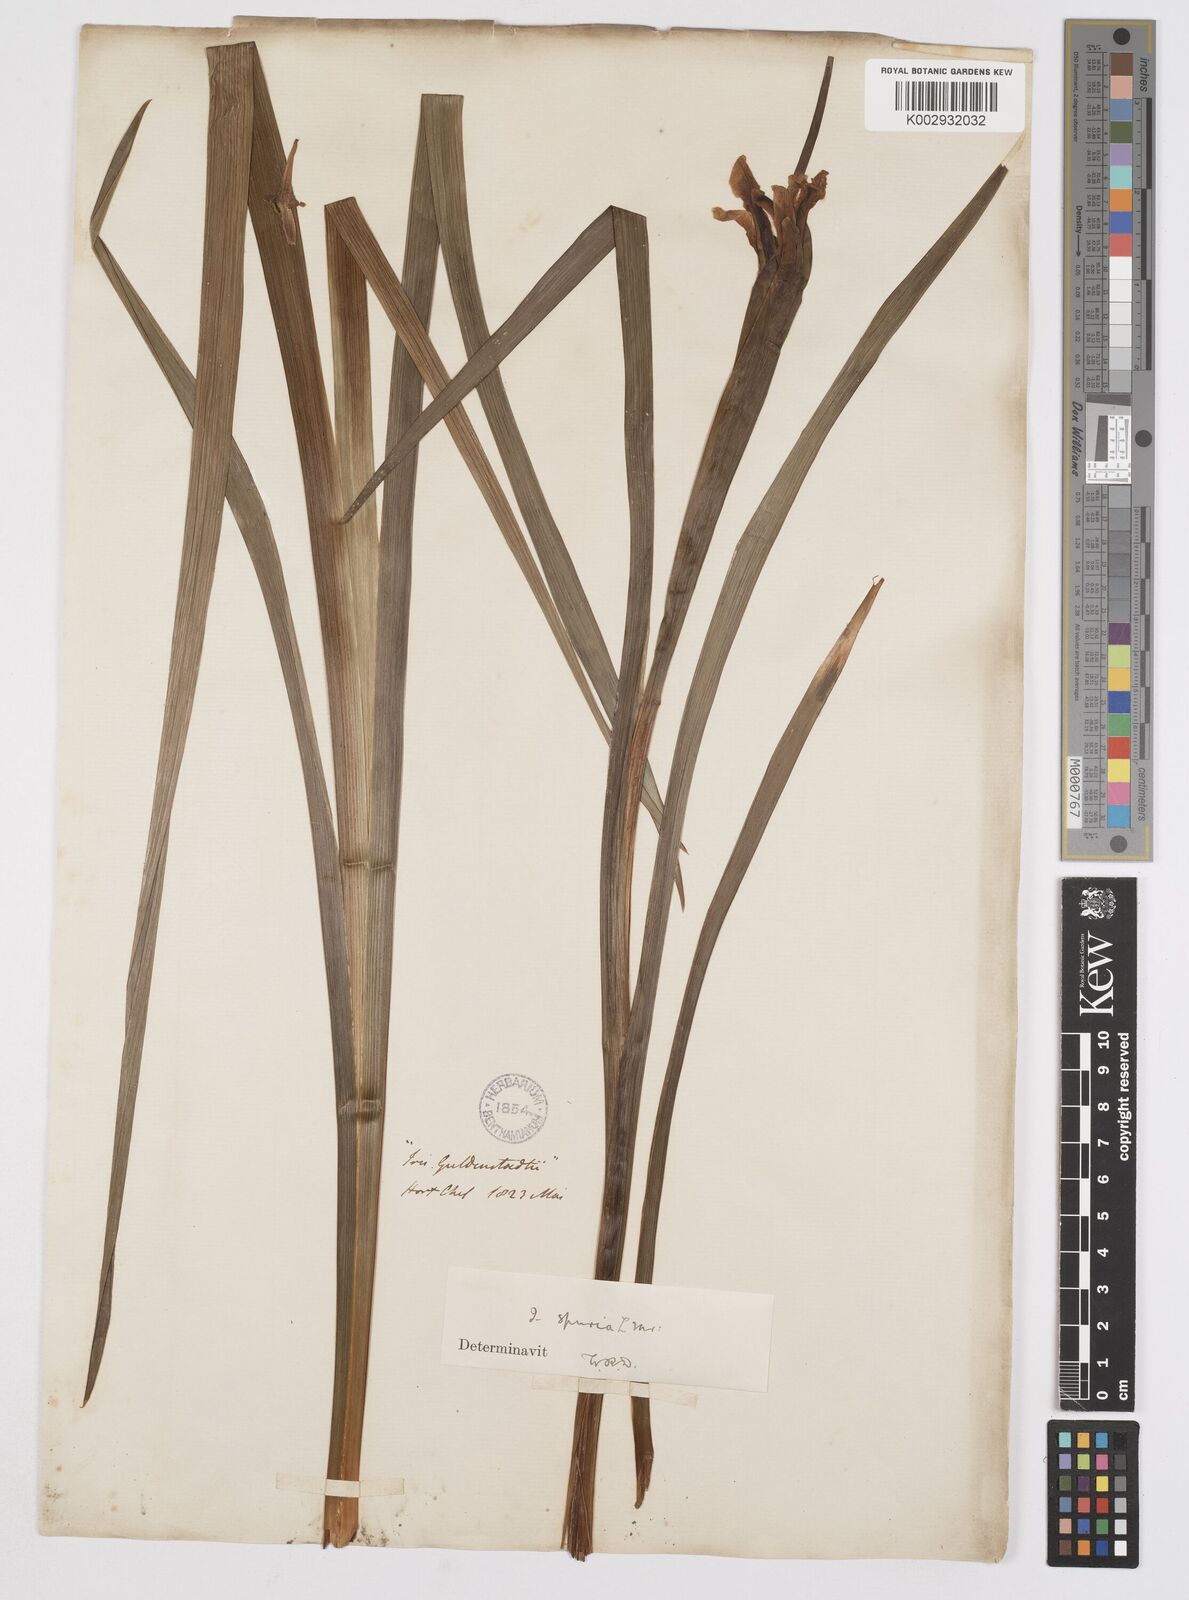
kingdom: Plantae
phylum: Tracheophyta
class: Liliopsida
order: Asparagales
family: Iridaceae
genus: Iris
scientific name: Iris halophila
